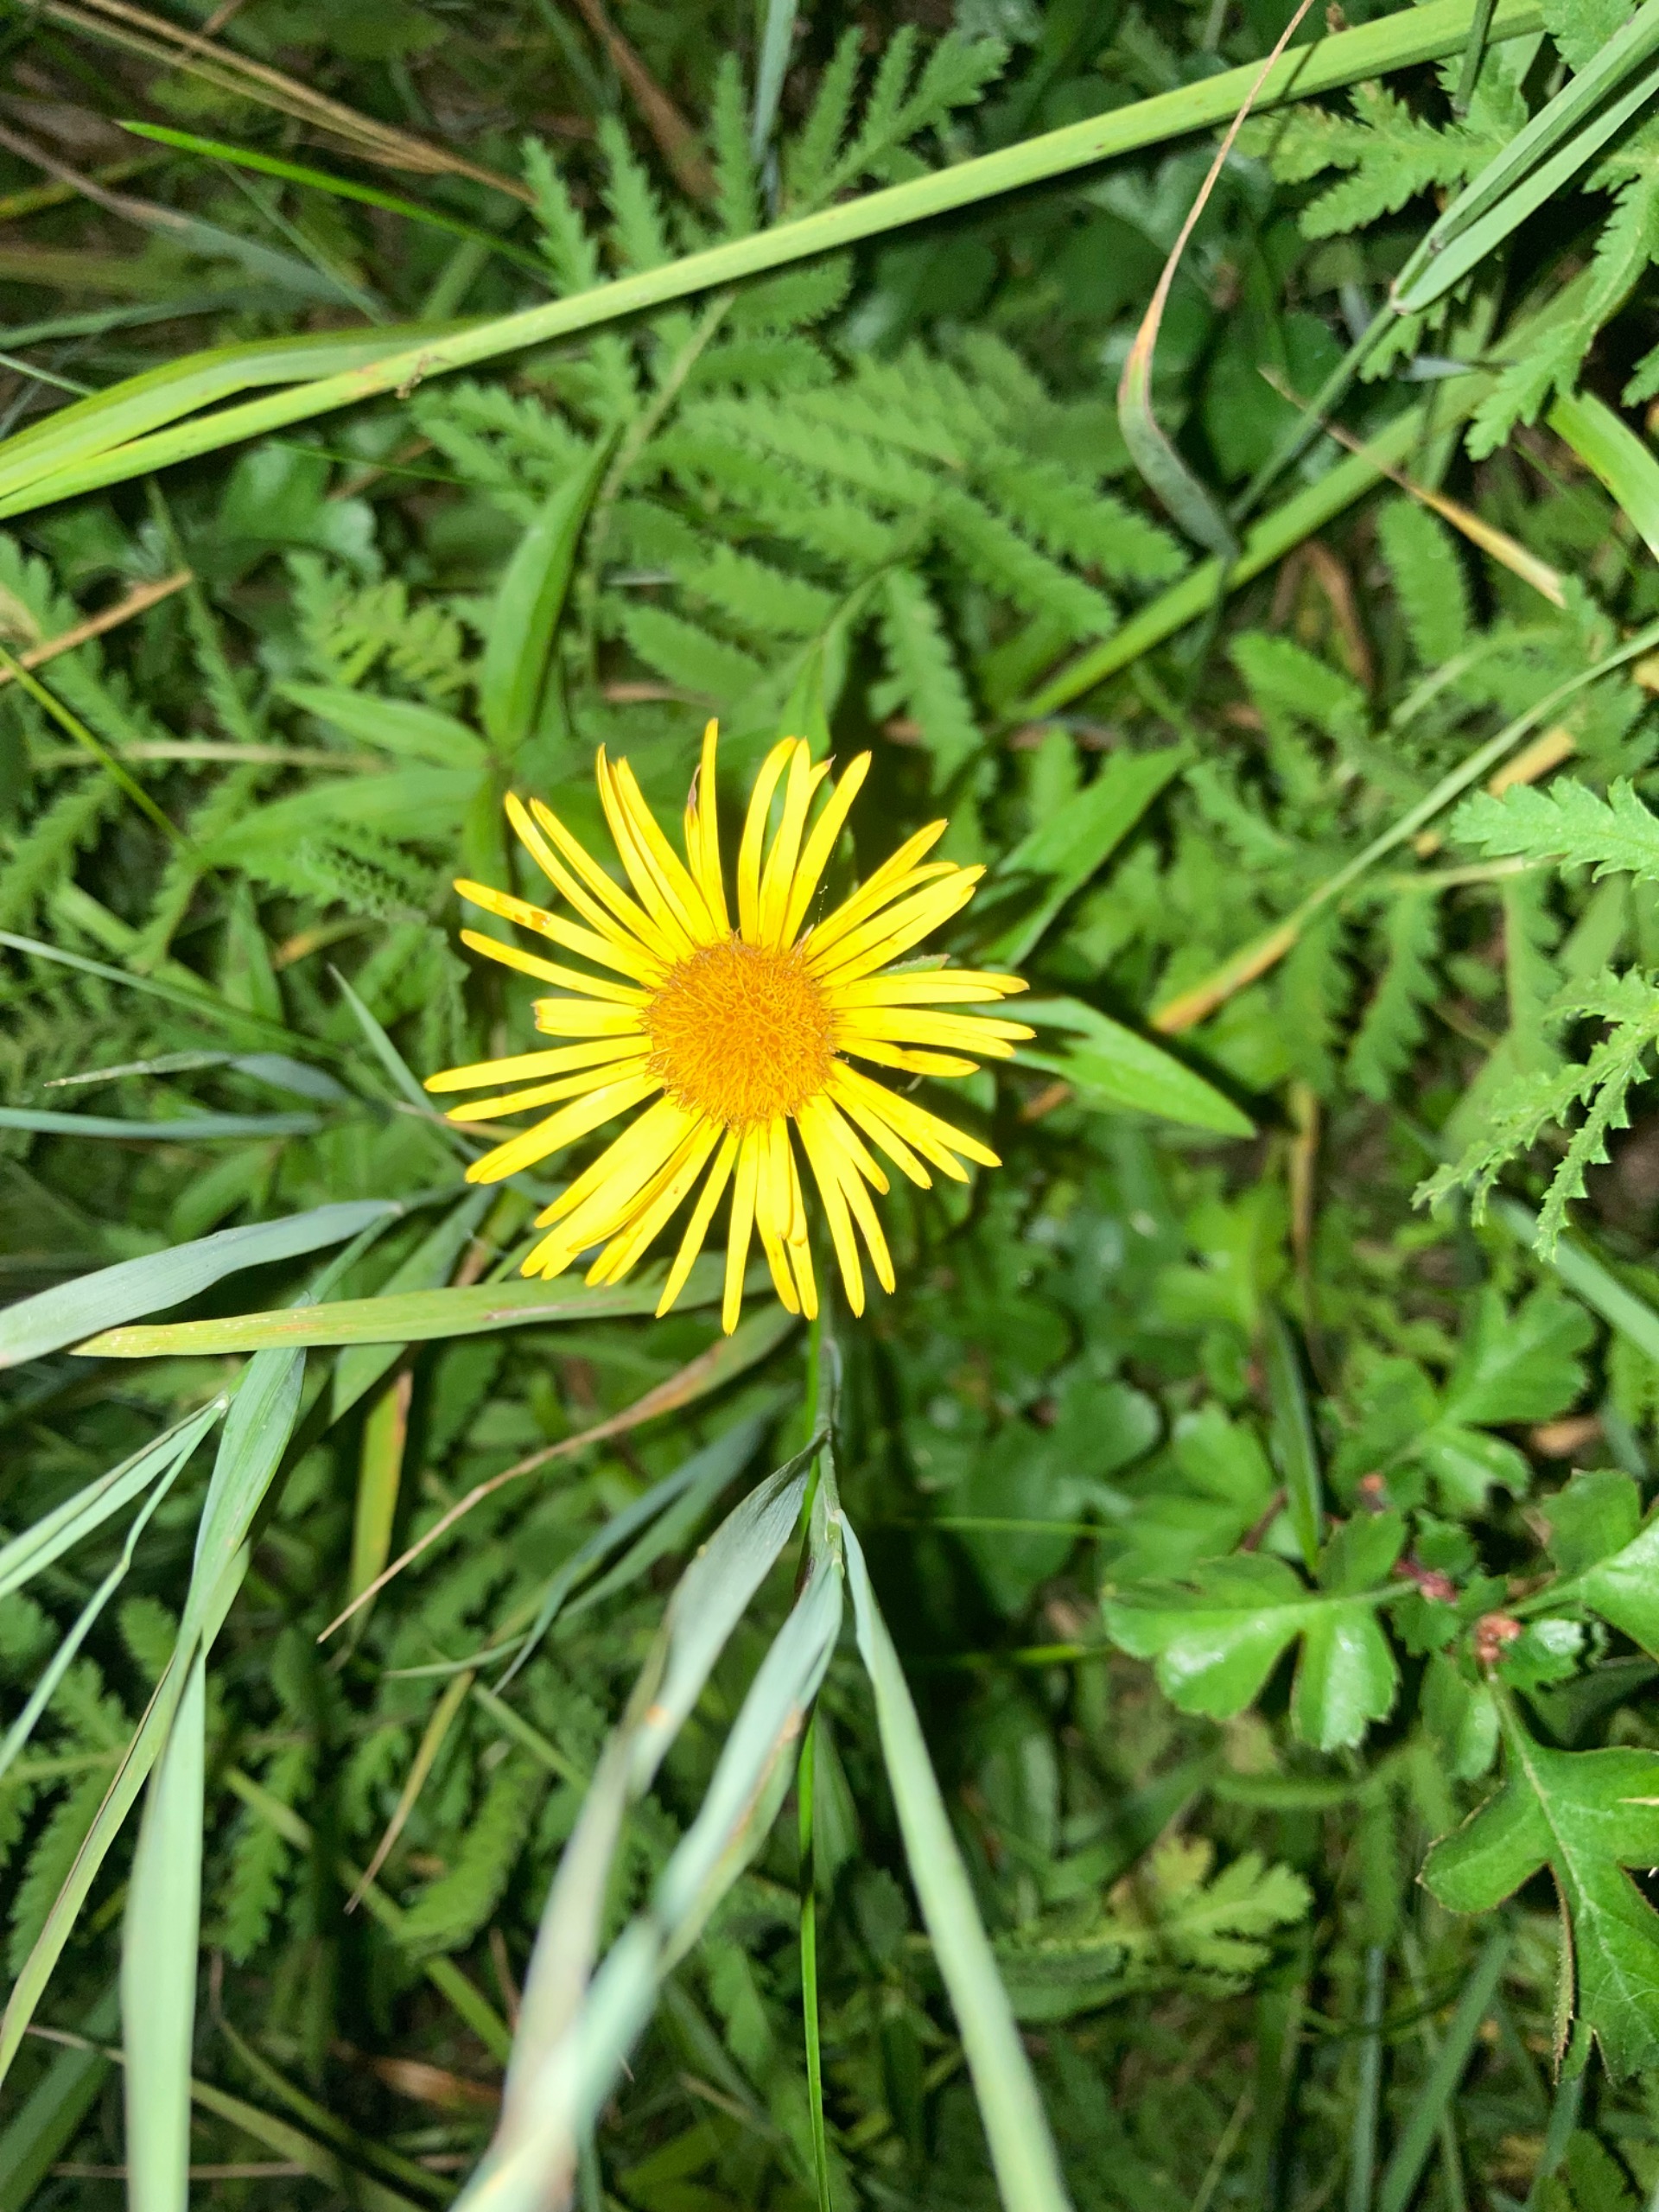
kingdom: Plantae
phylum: Tracheophyta
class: Magnoliopsida
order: Asterales
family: Asteraceae
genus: Pentanema
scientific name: Pentanema salicinum
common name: Pile-alant
